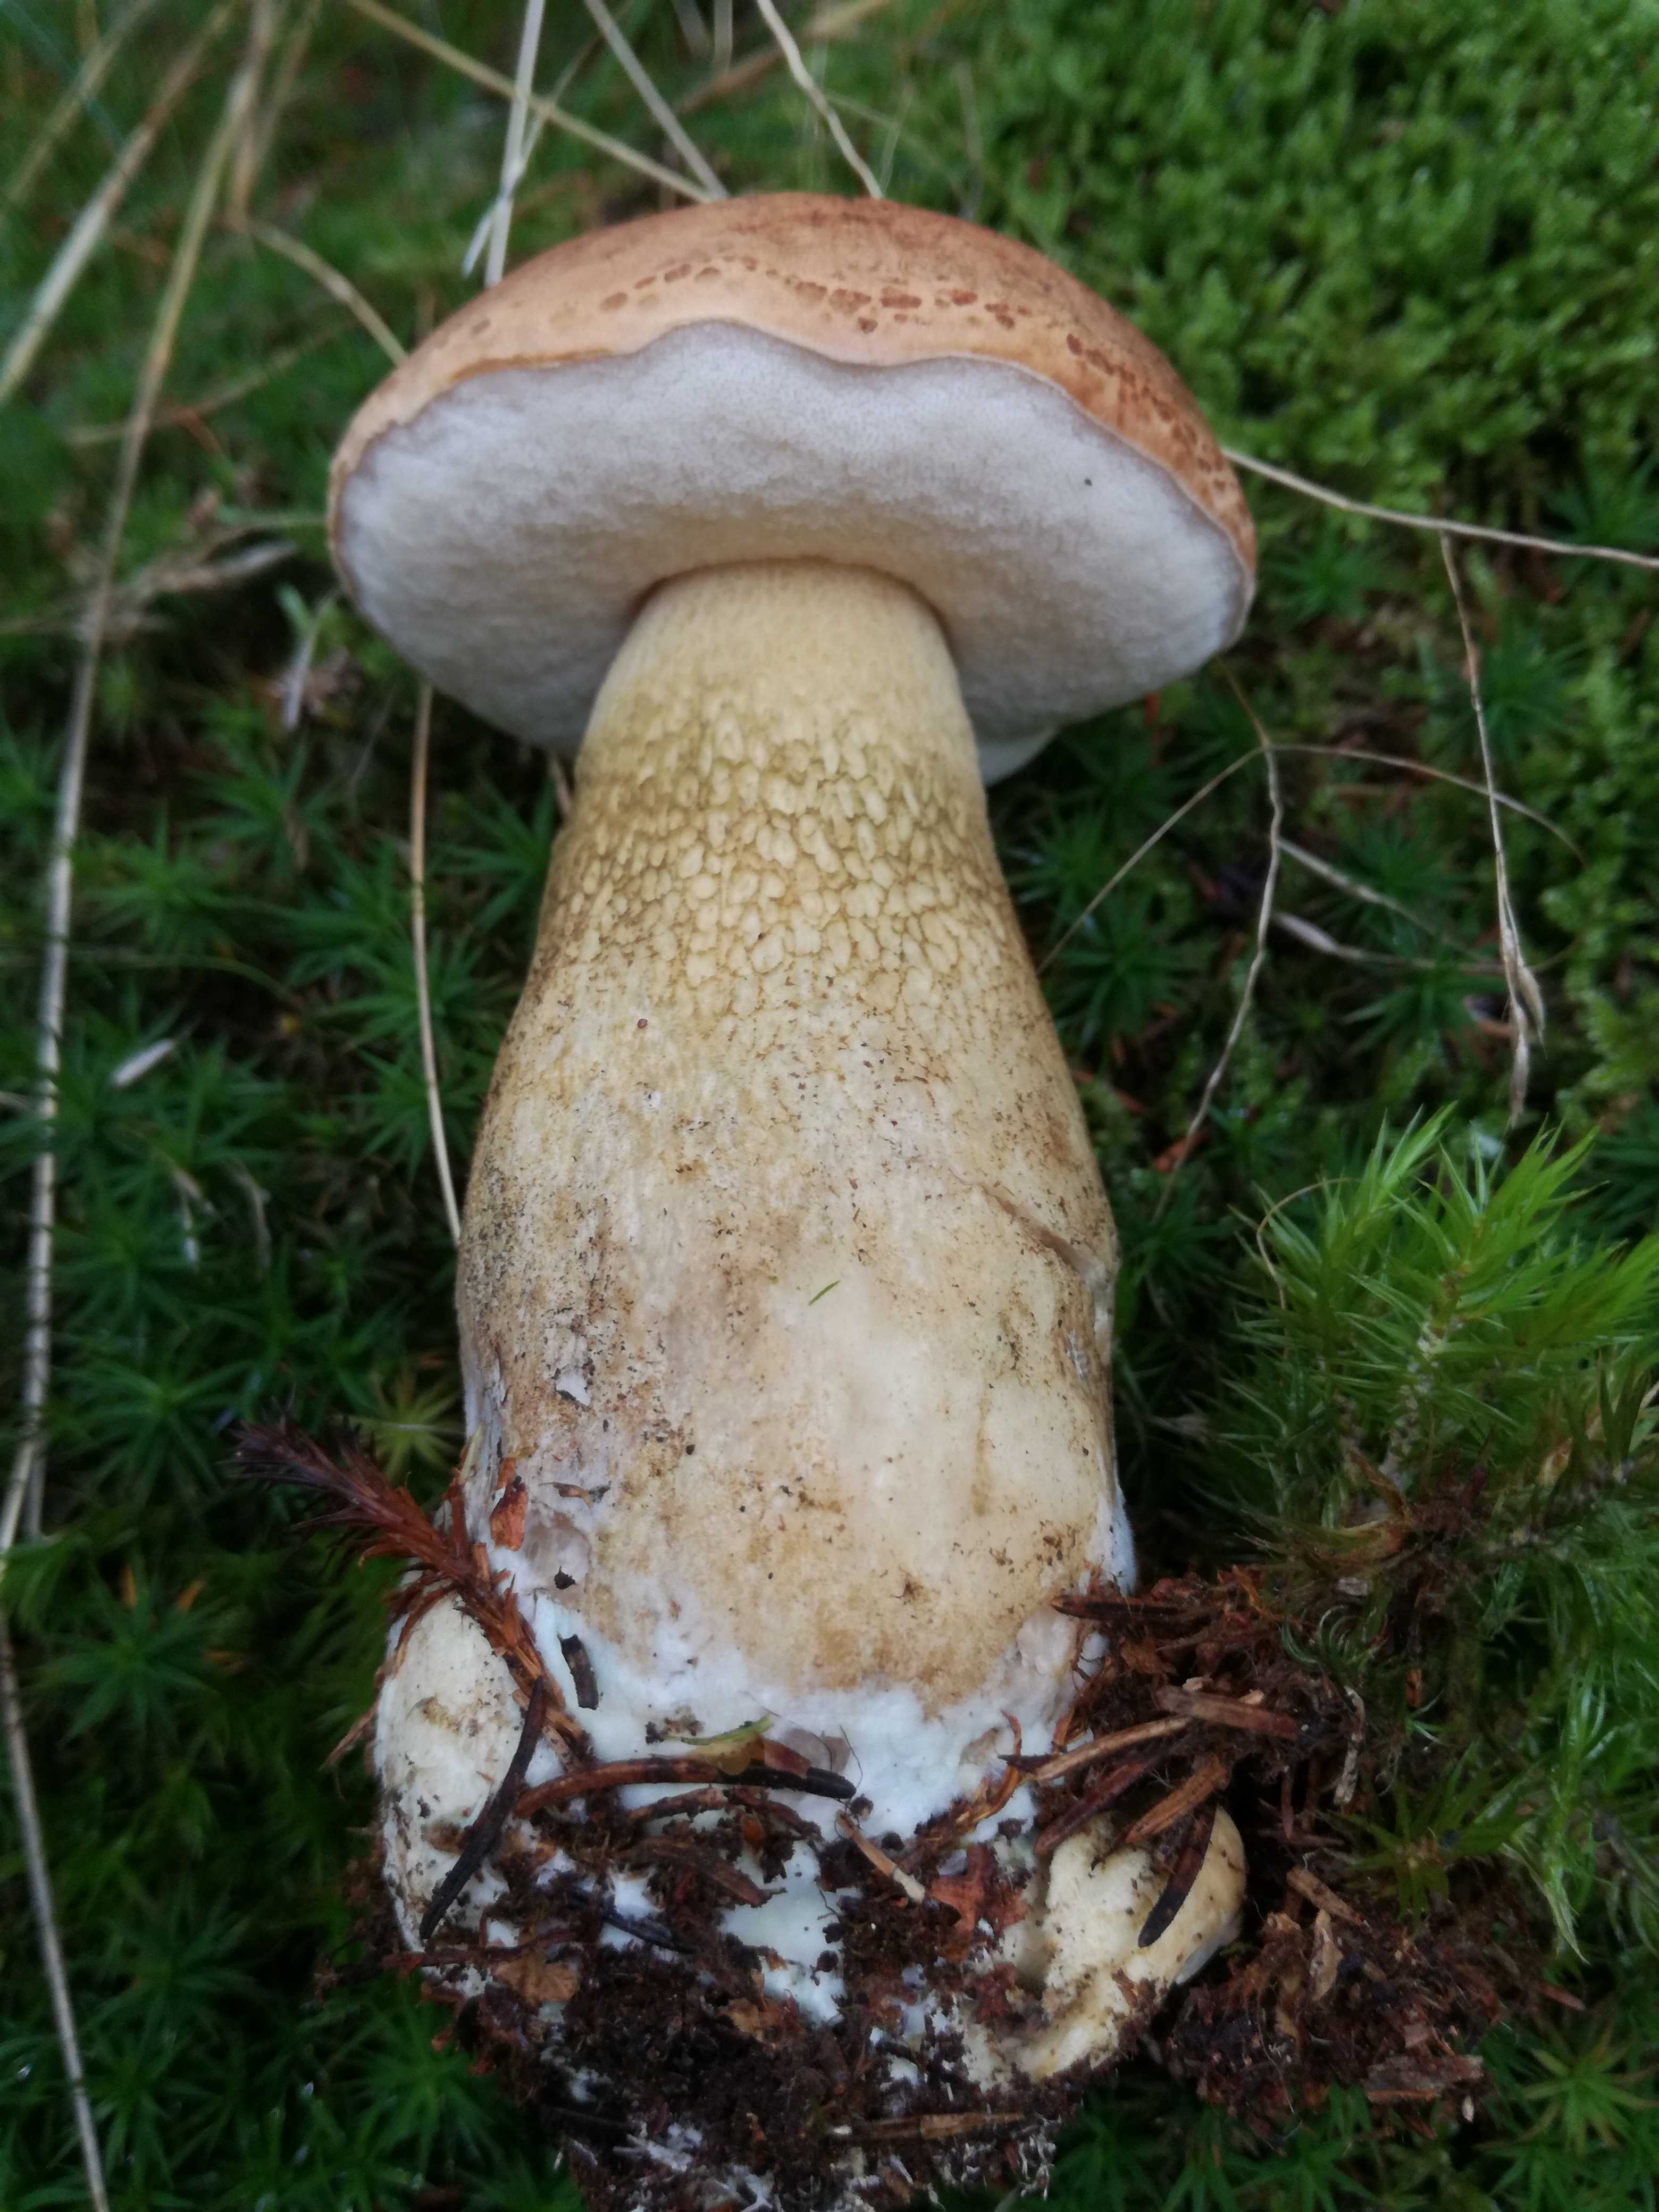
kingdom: Fungi
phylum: Basidiomycota
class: Agaricomycetes
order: Boletales
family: Boletaceae
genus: Tylopilus
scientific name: Tylopilus felleus
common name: galderørhat
